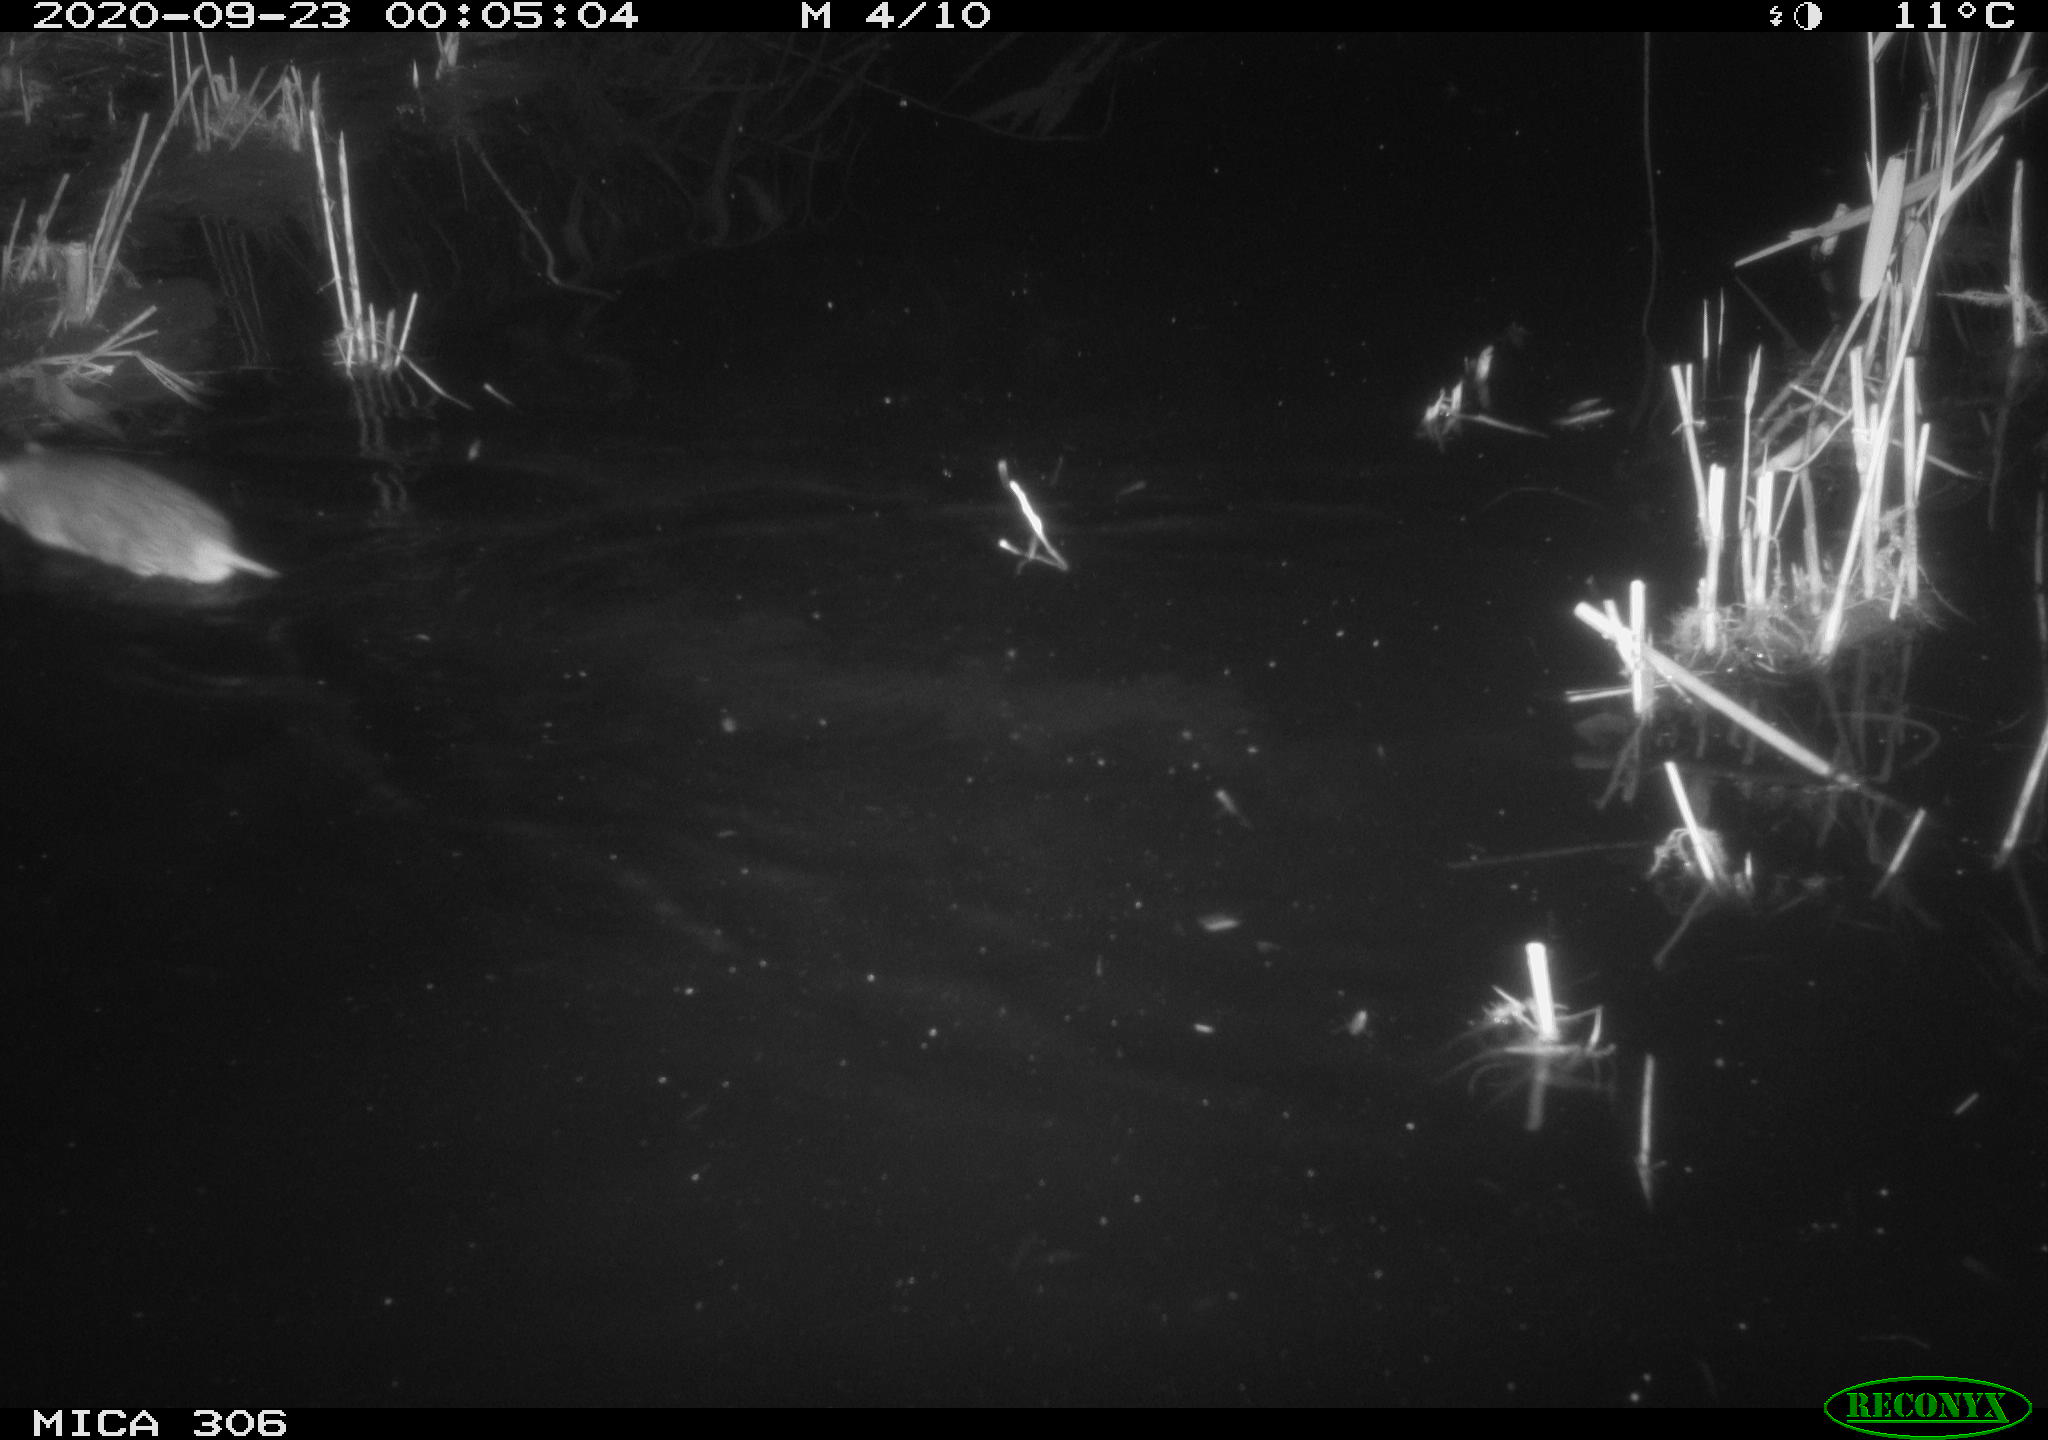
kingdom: Animalia
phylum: Chordata
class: Mammalia
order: Rodentia
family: Muridae
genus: Rattus
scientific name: Rattus norvegicus
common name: Brown rat
